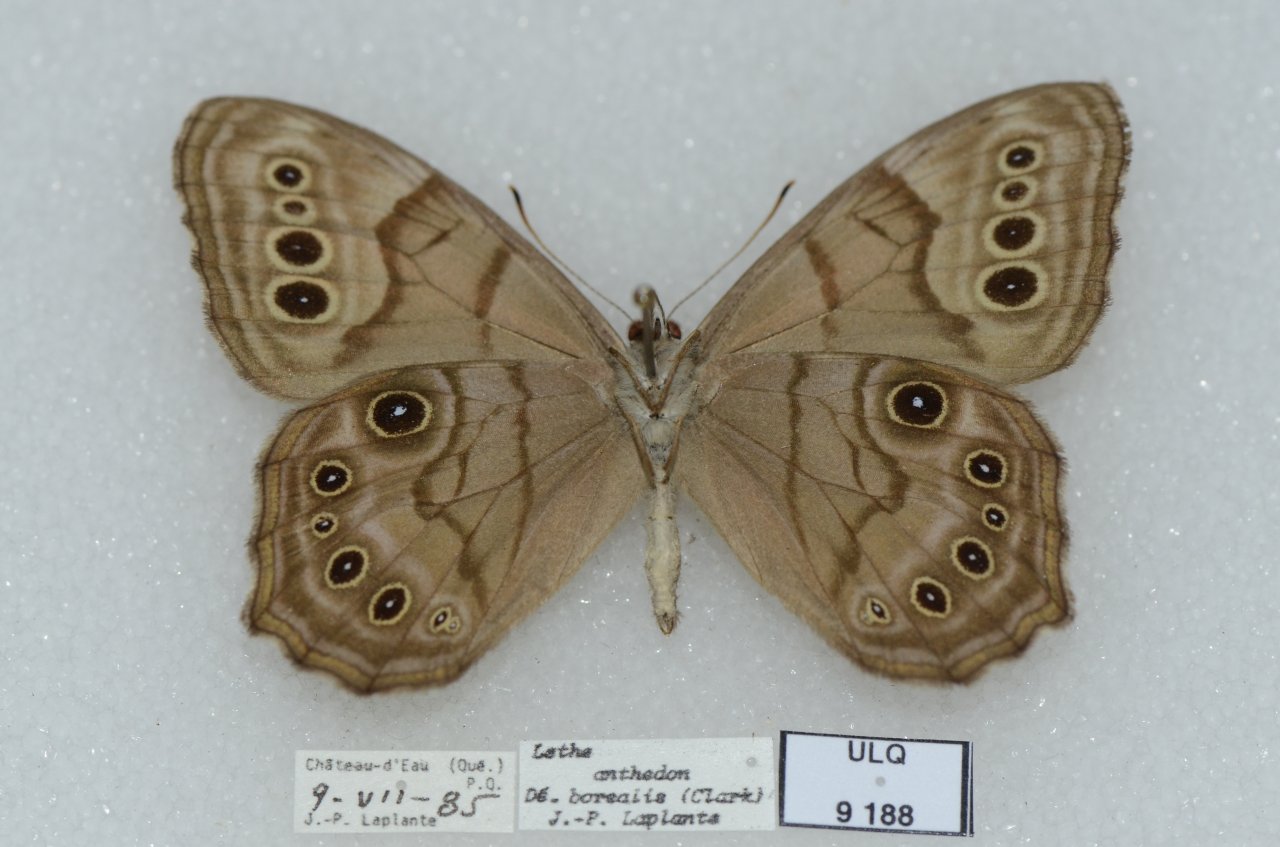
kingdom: Animalia
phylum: Arthropoda
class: Insecta
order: Lepidoptera
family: Nymphalidae
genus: Lethe
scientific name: Lethe anthedon
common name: Northern Pearly-Eye
